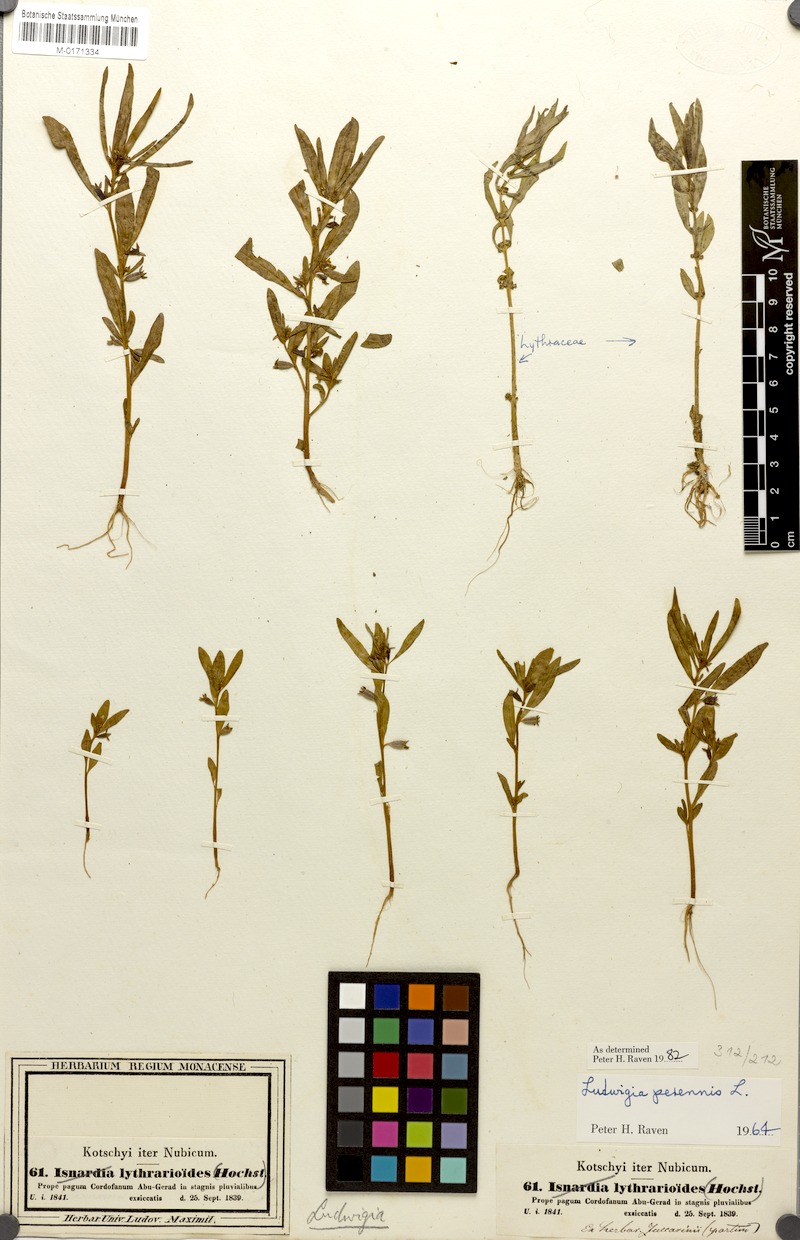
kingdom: Plantae
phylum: Tracheophyta
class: Magnoliopsida
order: Myrtales
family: Onagraceae
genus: Ludwigia
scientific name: Ludwigia perennis
